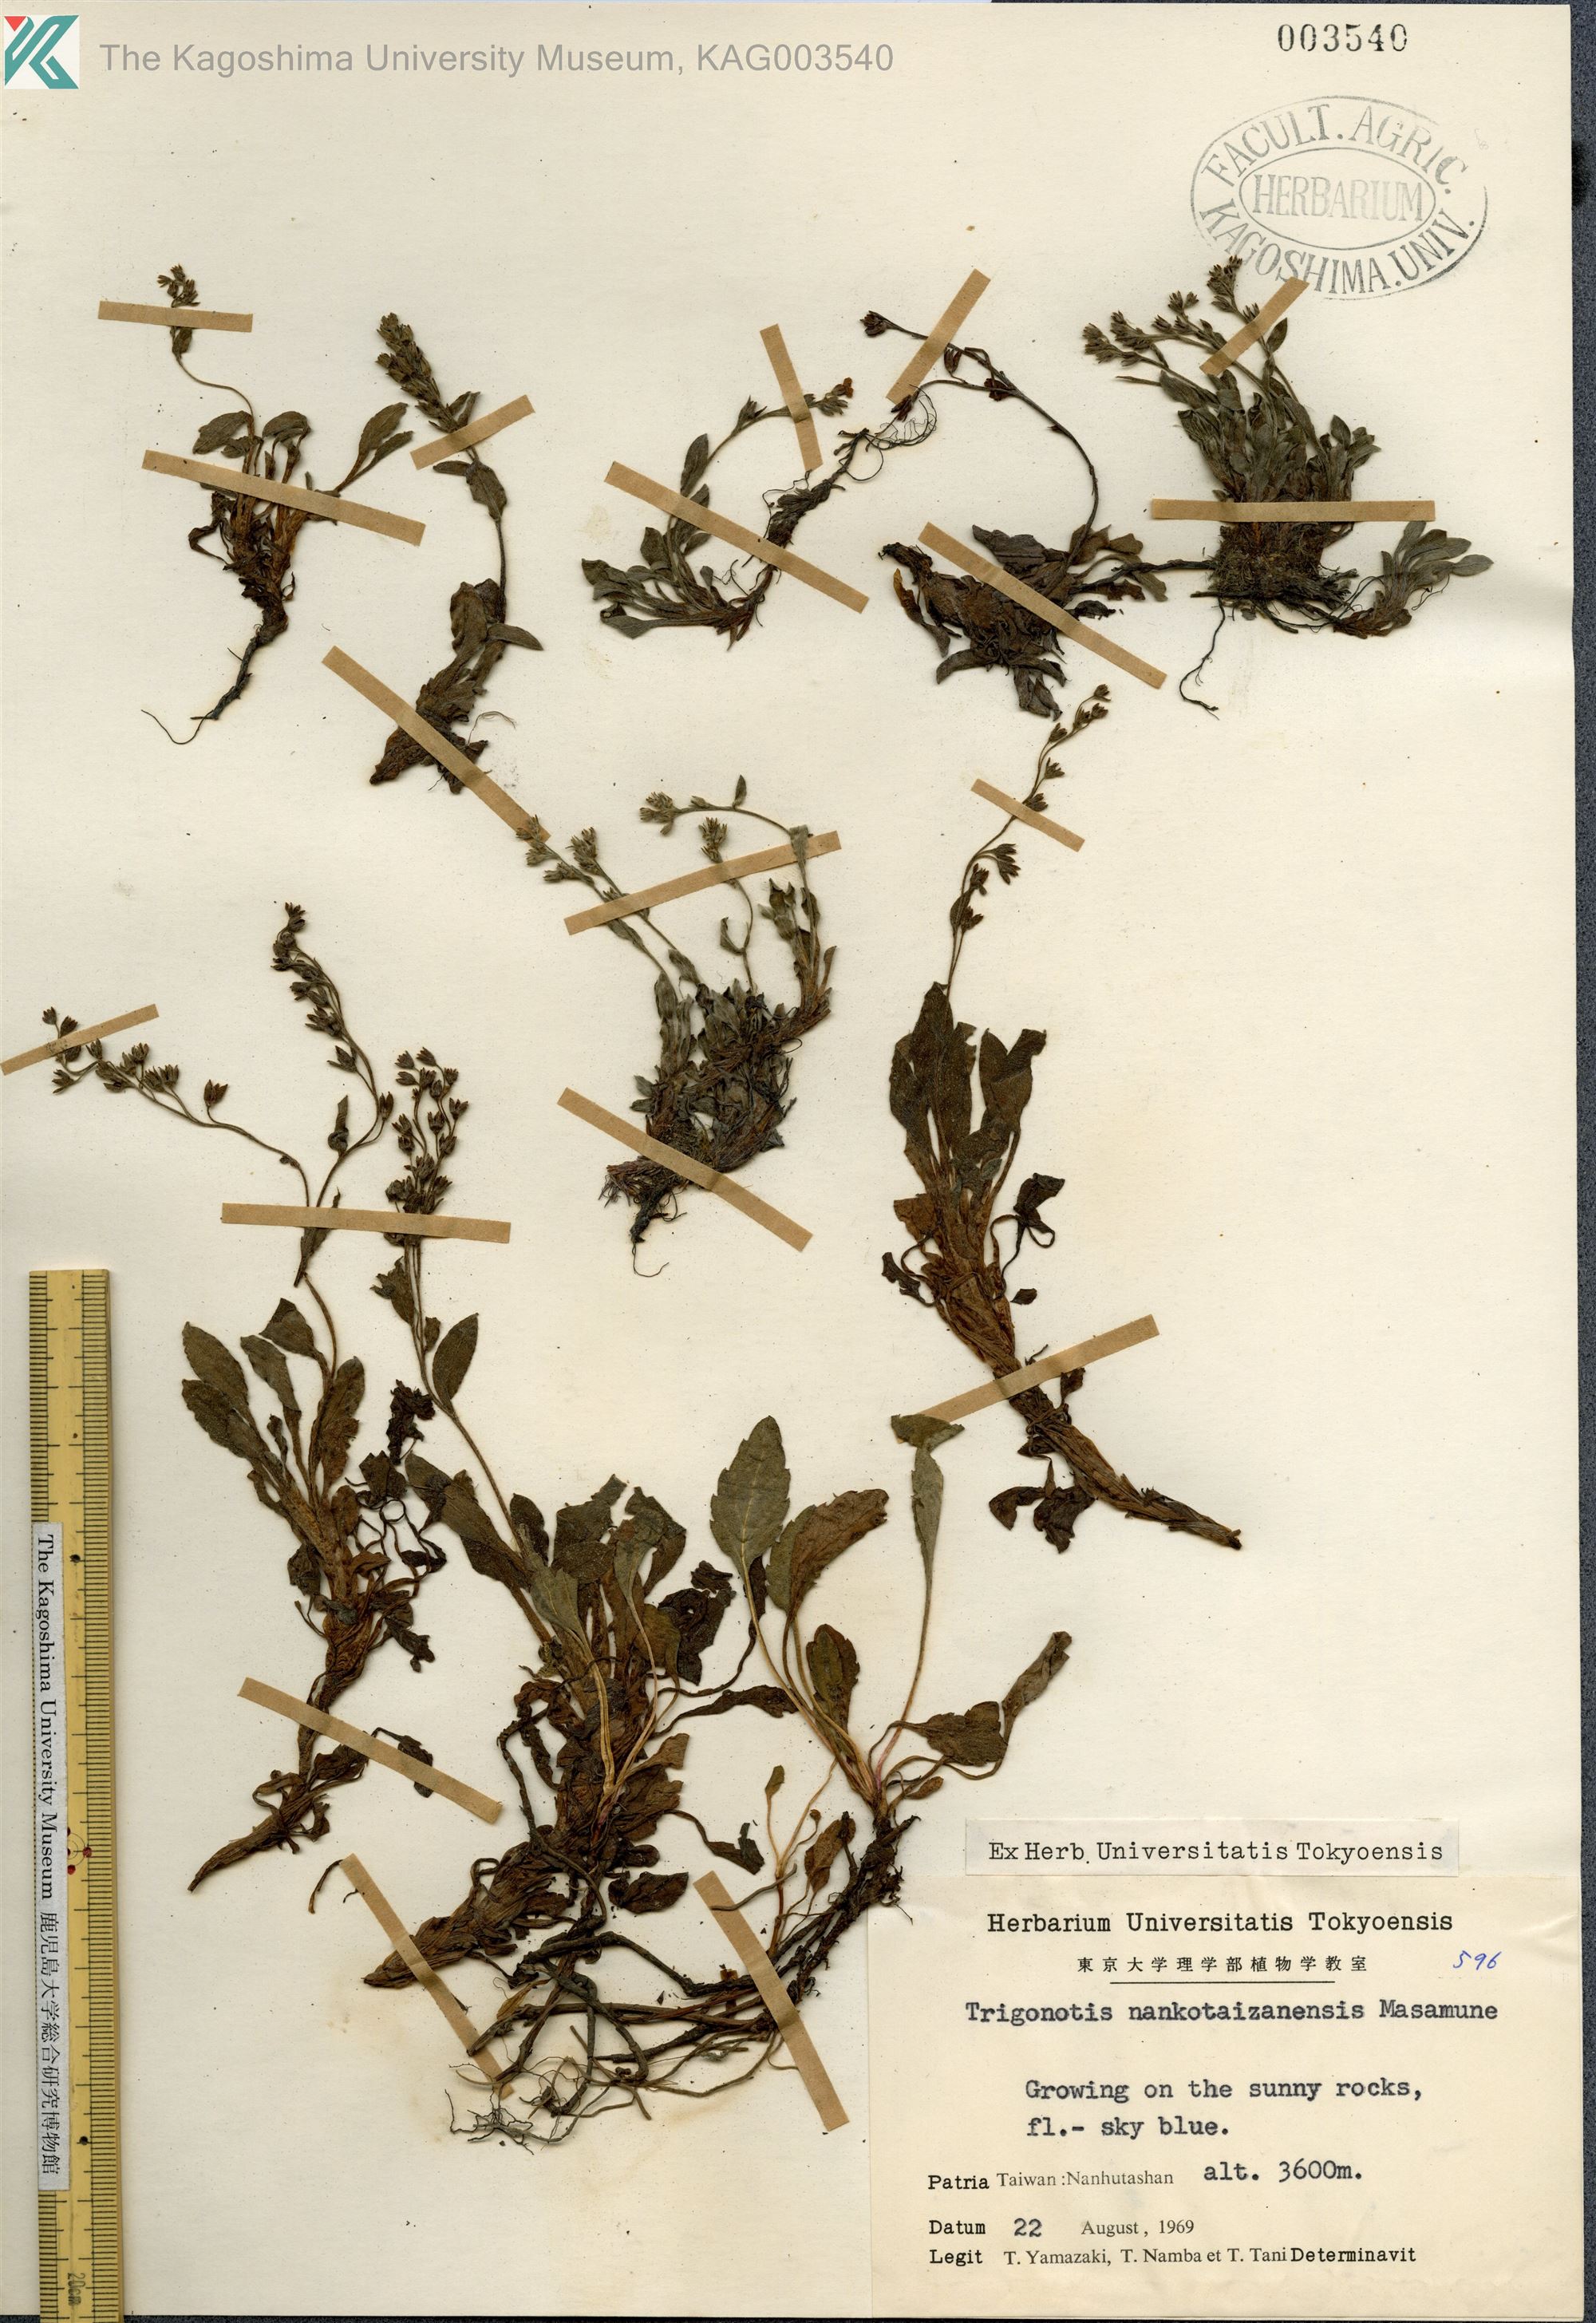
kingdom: Plantae
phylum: Tracheophyta
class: Magnoliopsida
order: Boraginales
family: Boraginaceae
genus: Trigonotis
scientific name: Trigonotis nankotaizanensis
